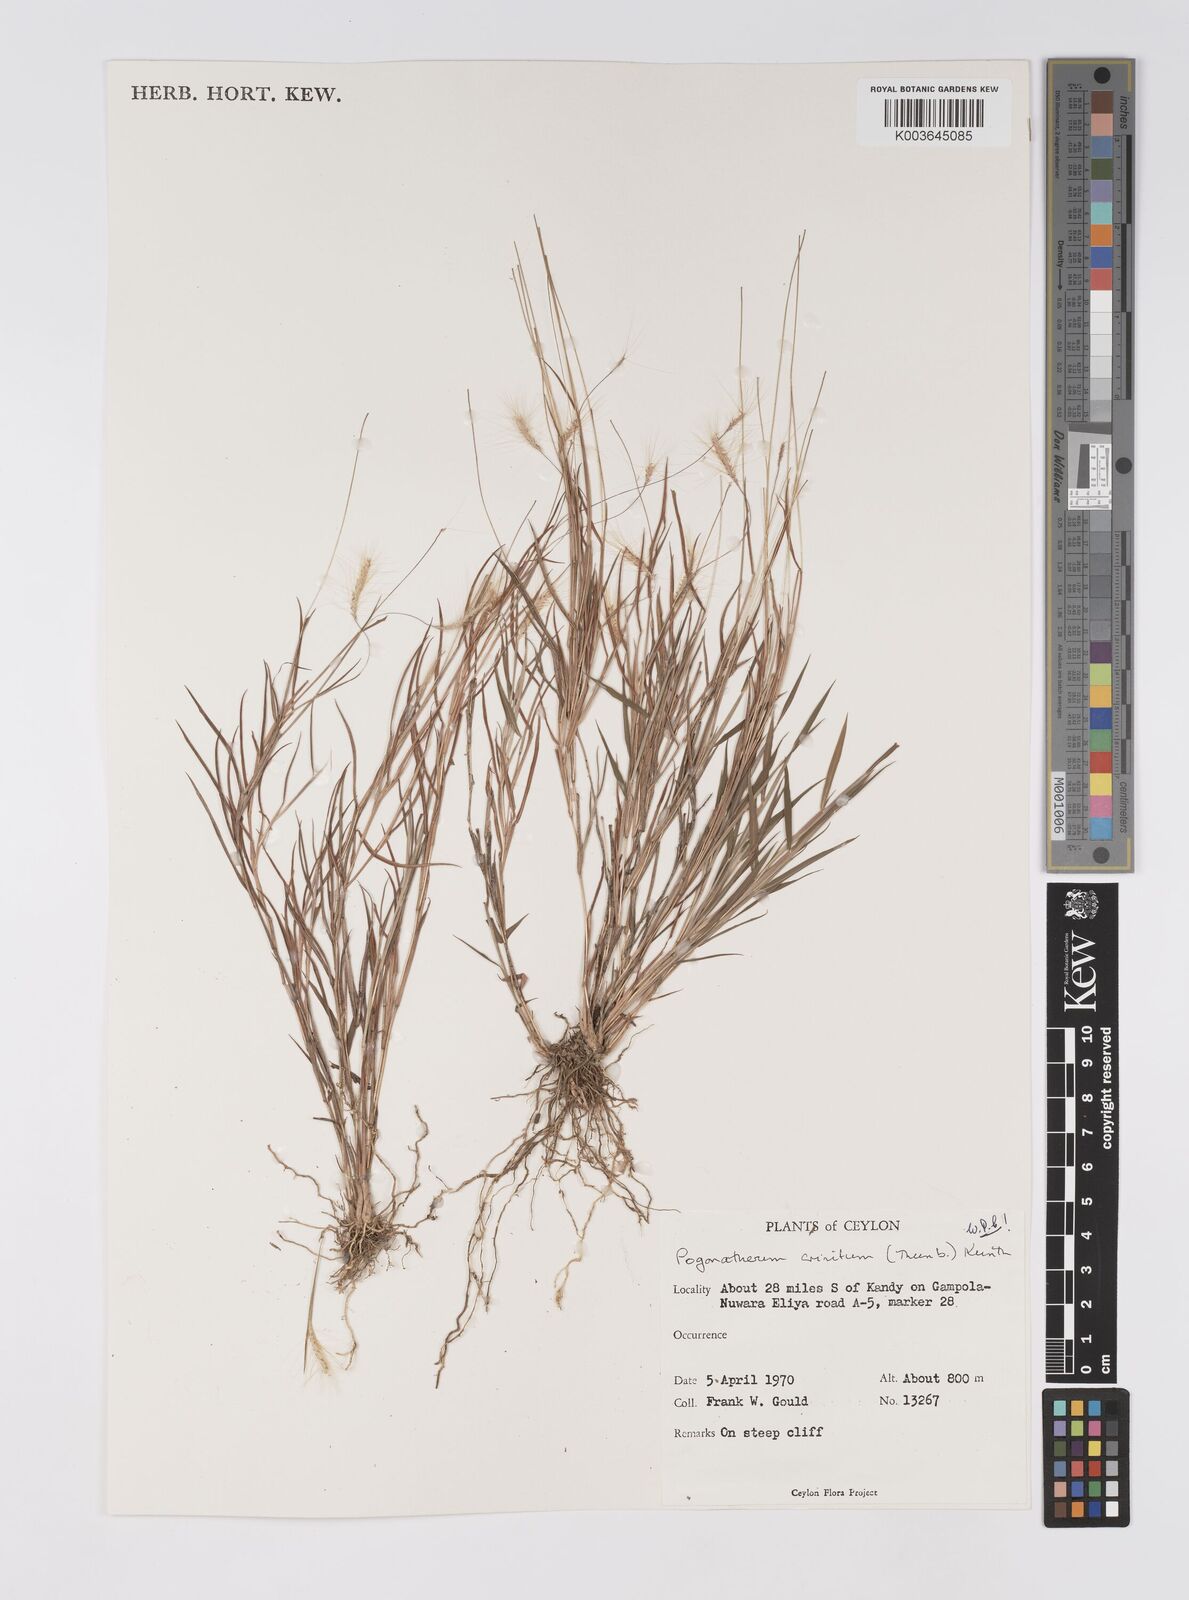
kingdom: Plantae
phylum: Tracheophyta
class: Liliopsida
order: Poales
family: Poaceae
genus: Pogonatherum
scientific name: Pogonatherum crinitum
